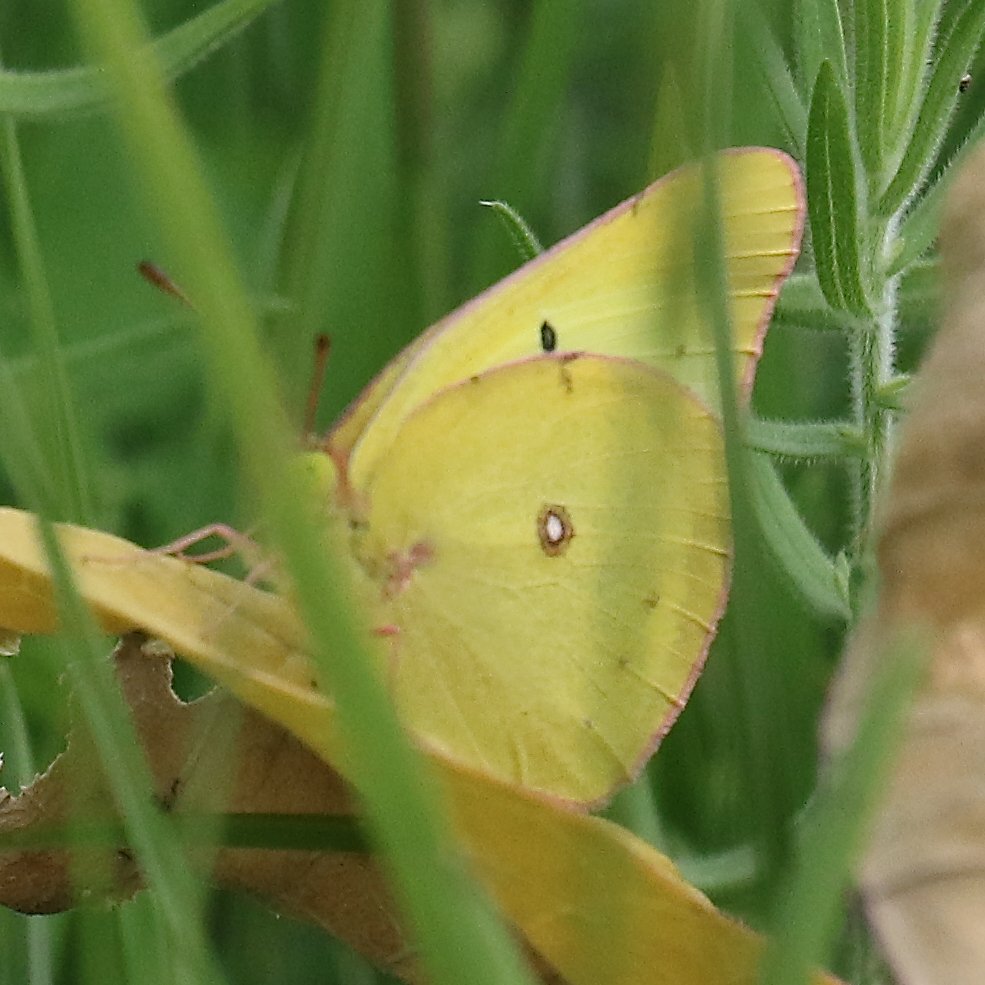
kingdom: Animalia
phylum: Arthropoda
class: Insecta
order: Lepidoptera
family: Pieridae
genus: Colias
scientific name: Colias interior
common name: Pink-edged Sulphur
